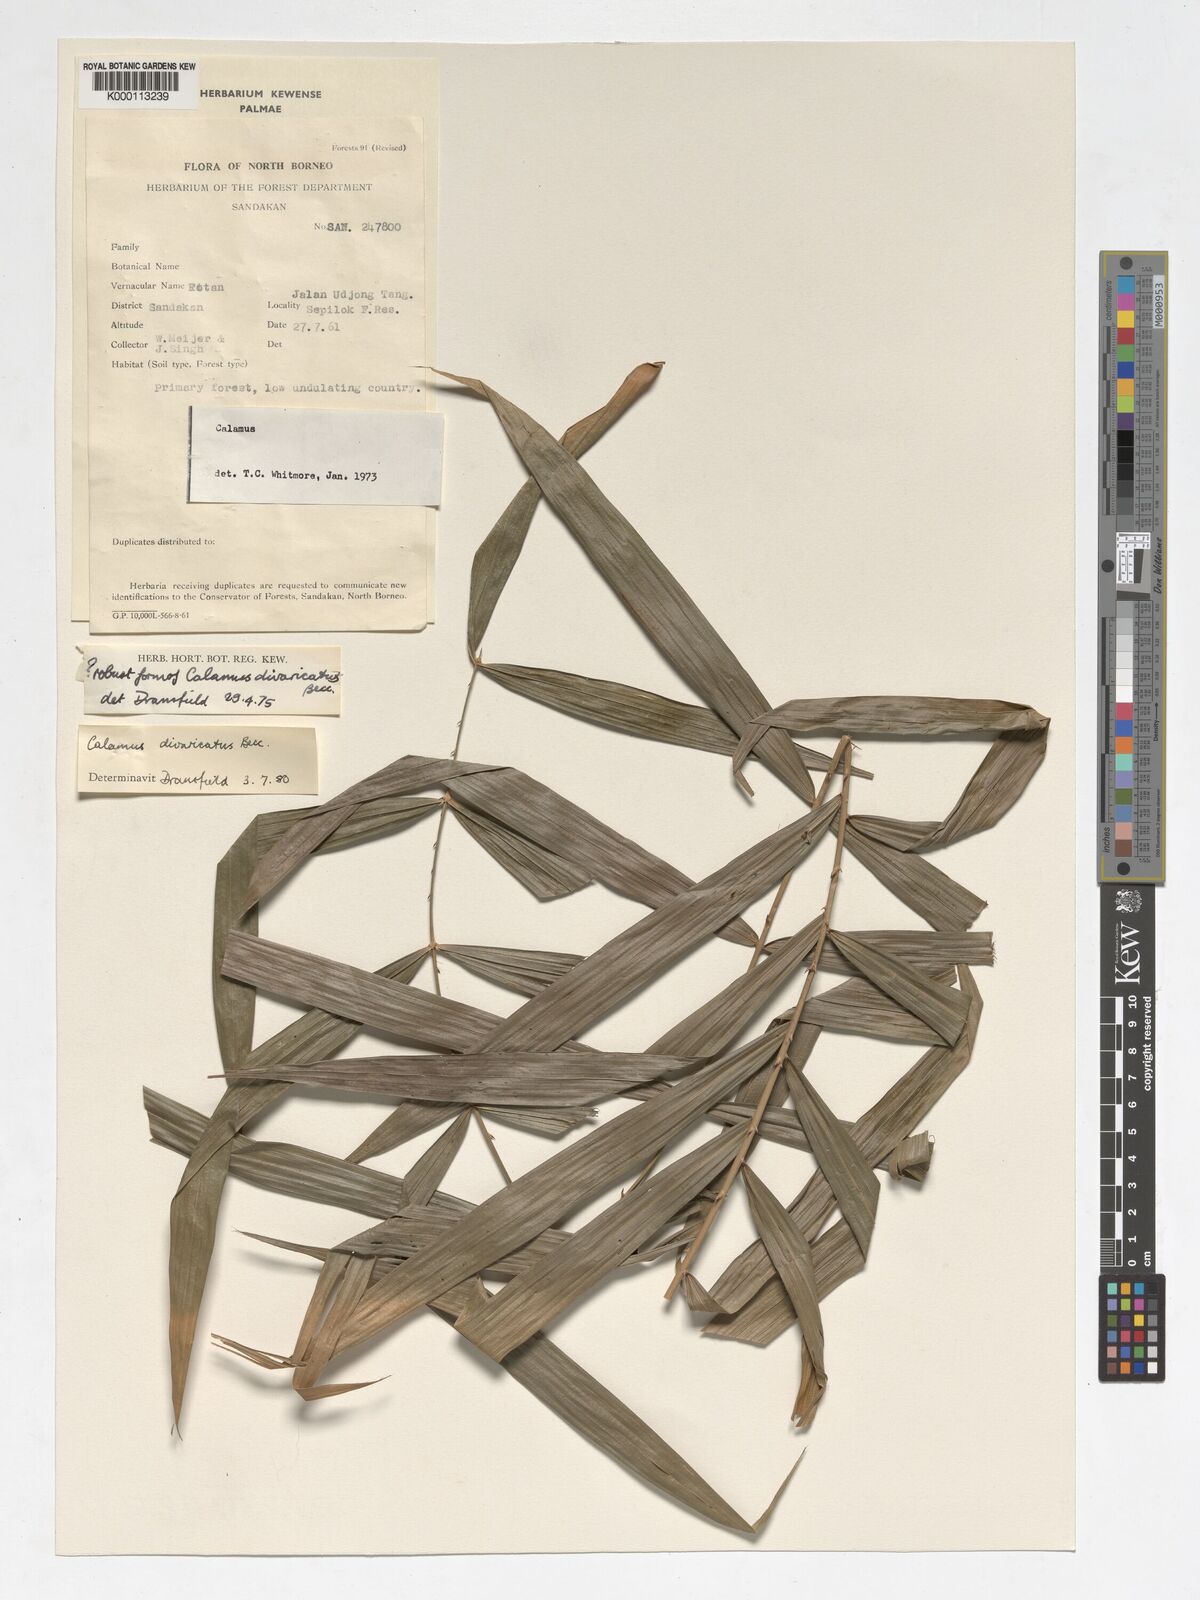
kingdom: Plantae
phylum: Tracheophyta
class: Liliopsida
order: Arecales
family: Arecaceae
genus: Calamus
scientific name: Calamus divaricatus
